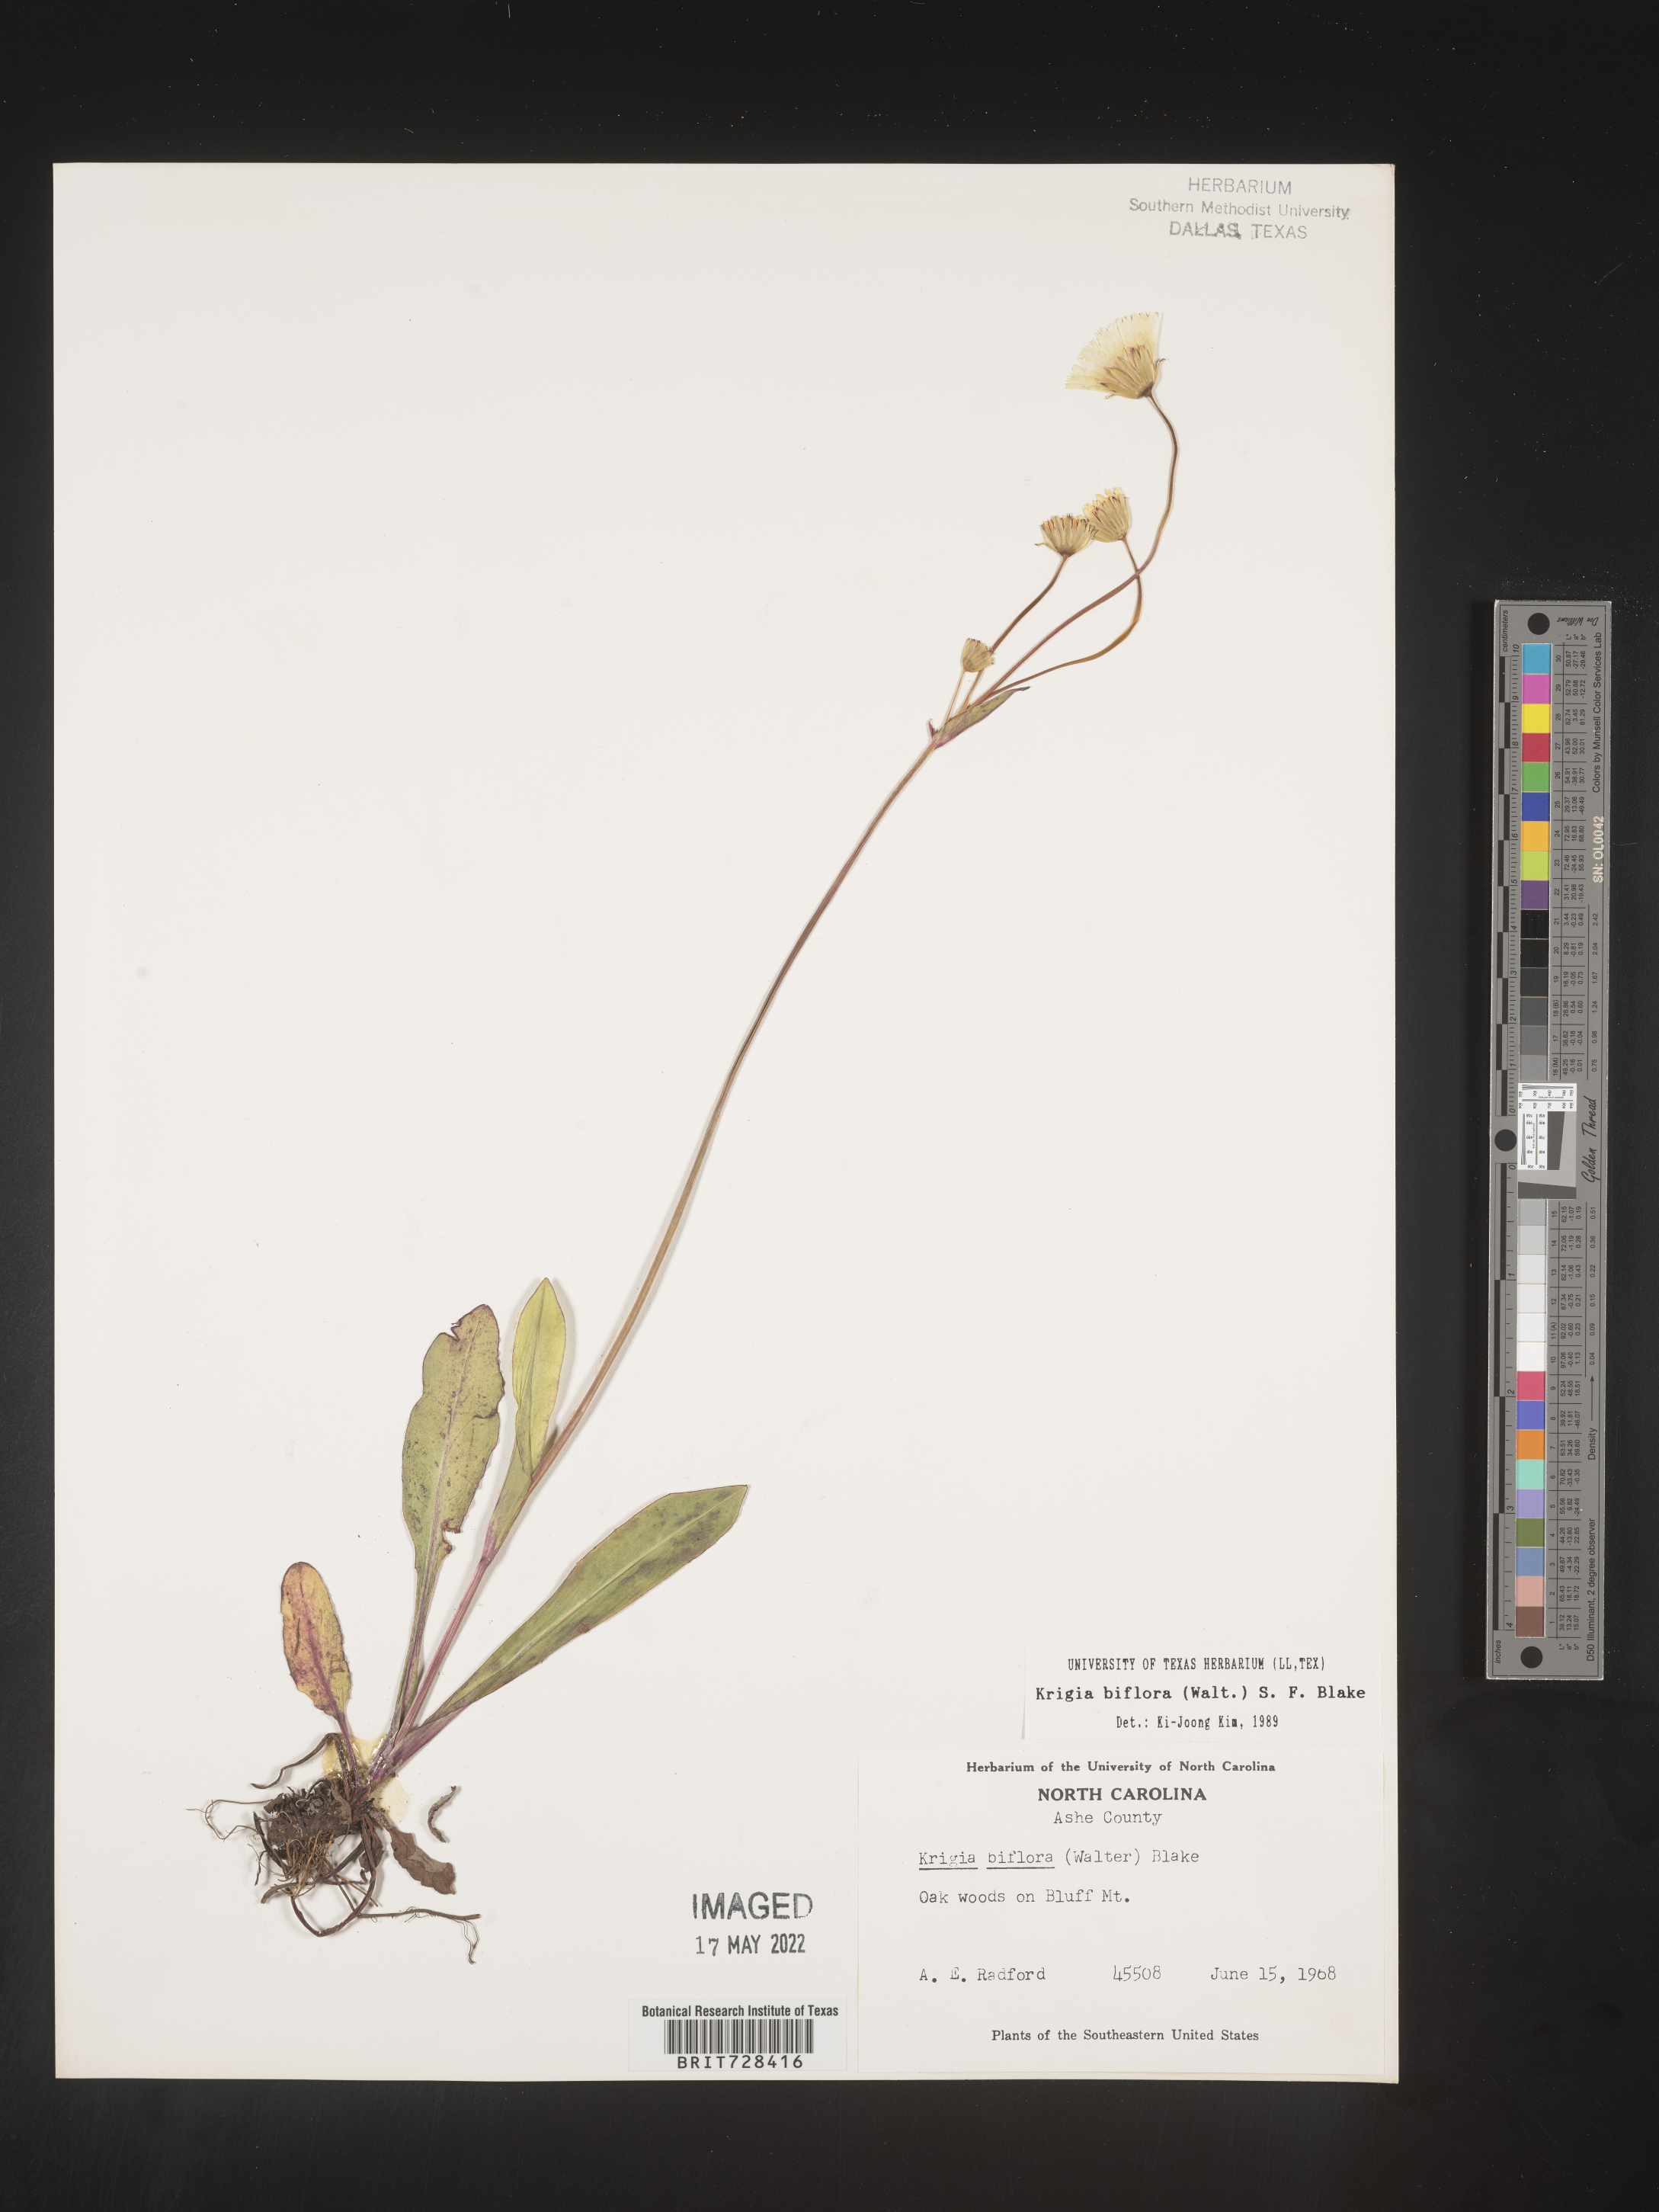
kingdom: Plantae
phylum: Tracheophyta
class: Magnoliopsida
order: Asterales
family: Asteraceae
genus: Krigia
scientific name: Krigia biflora
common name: Orange dwarf-dandelion
